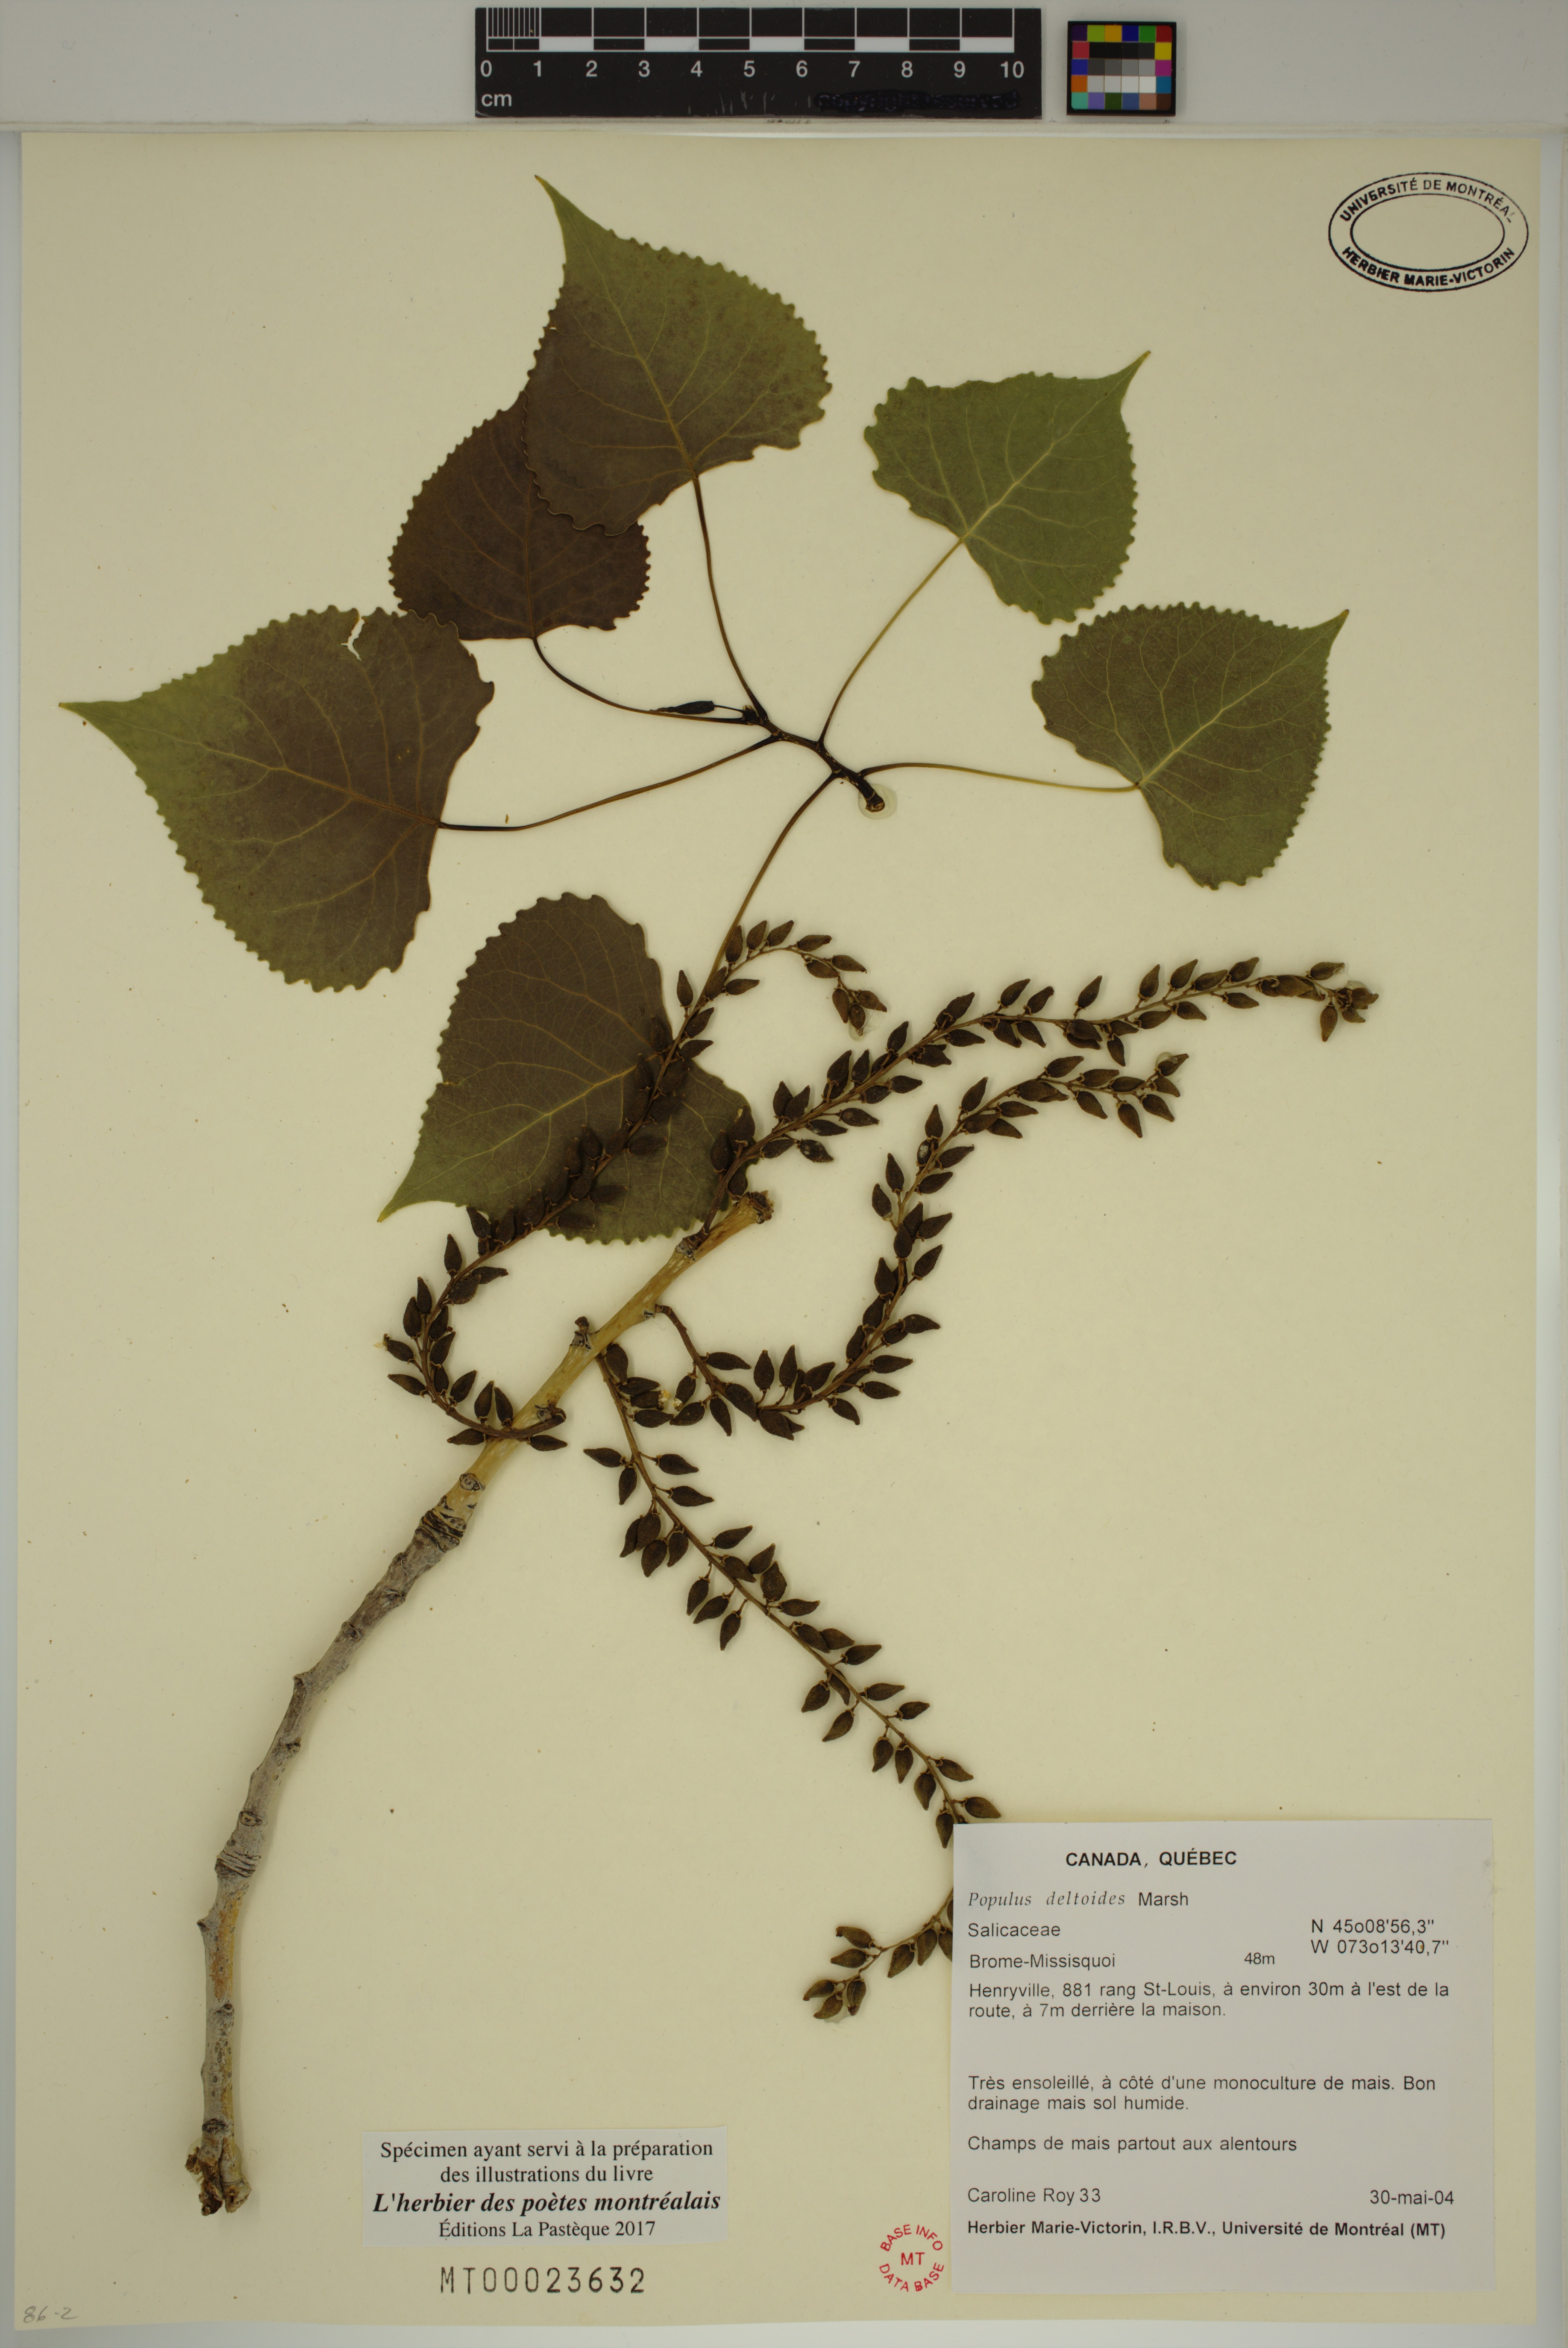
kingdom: Plantae
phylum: Tracheophyta
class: Magnoliopsida
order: Malpighiales
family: Salicaceae
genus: Populus
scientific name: Populus deltoides
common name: Eastern cottonwood
